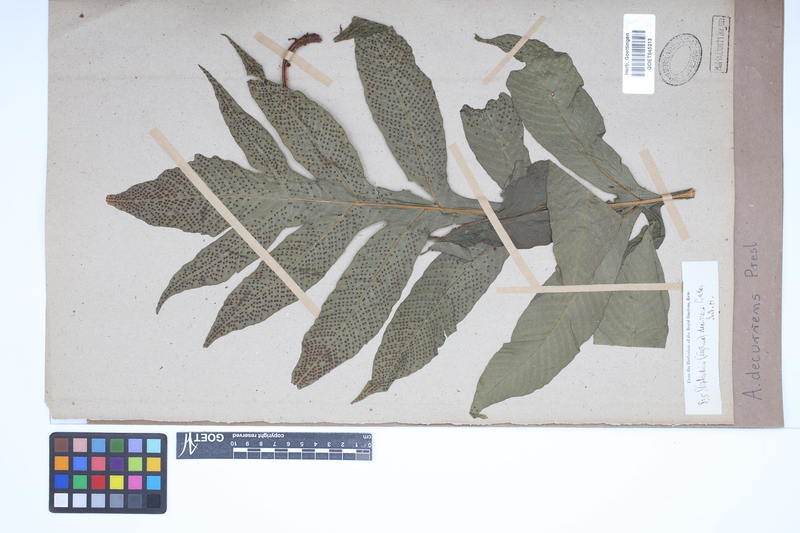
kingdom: Plantae
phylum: Tracheophyta
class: Polypodiopsida
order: Polypodiales
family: Tectariaceae
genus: Tectaria
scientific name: Tectaria decurrens
